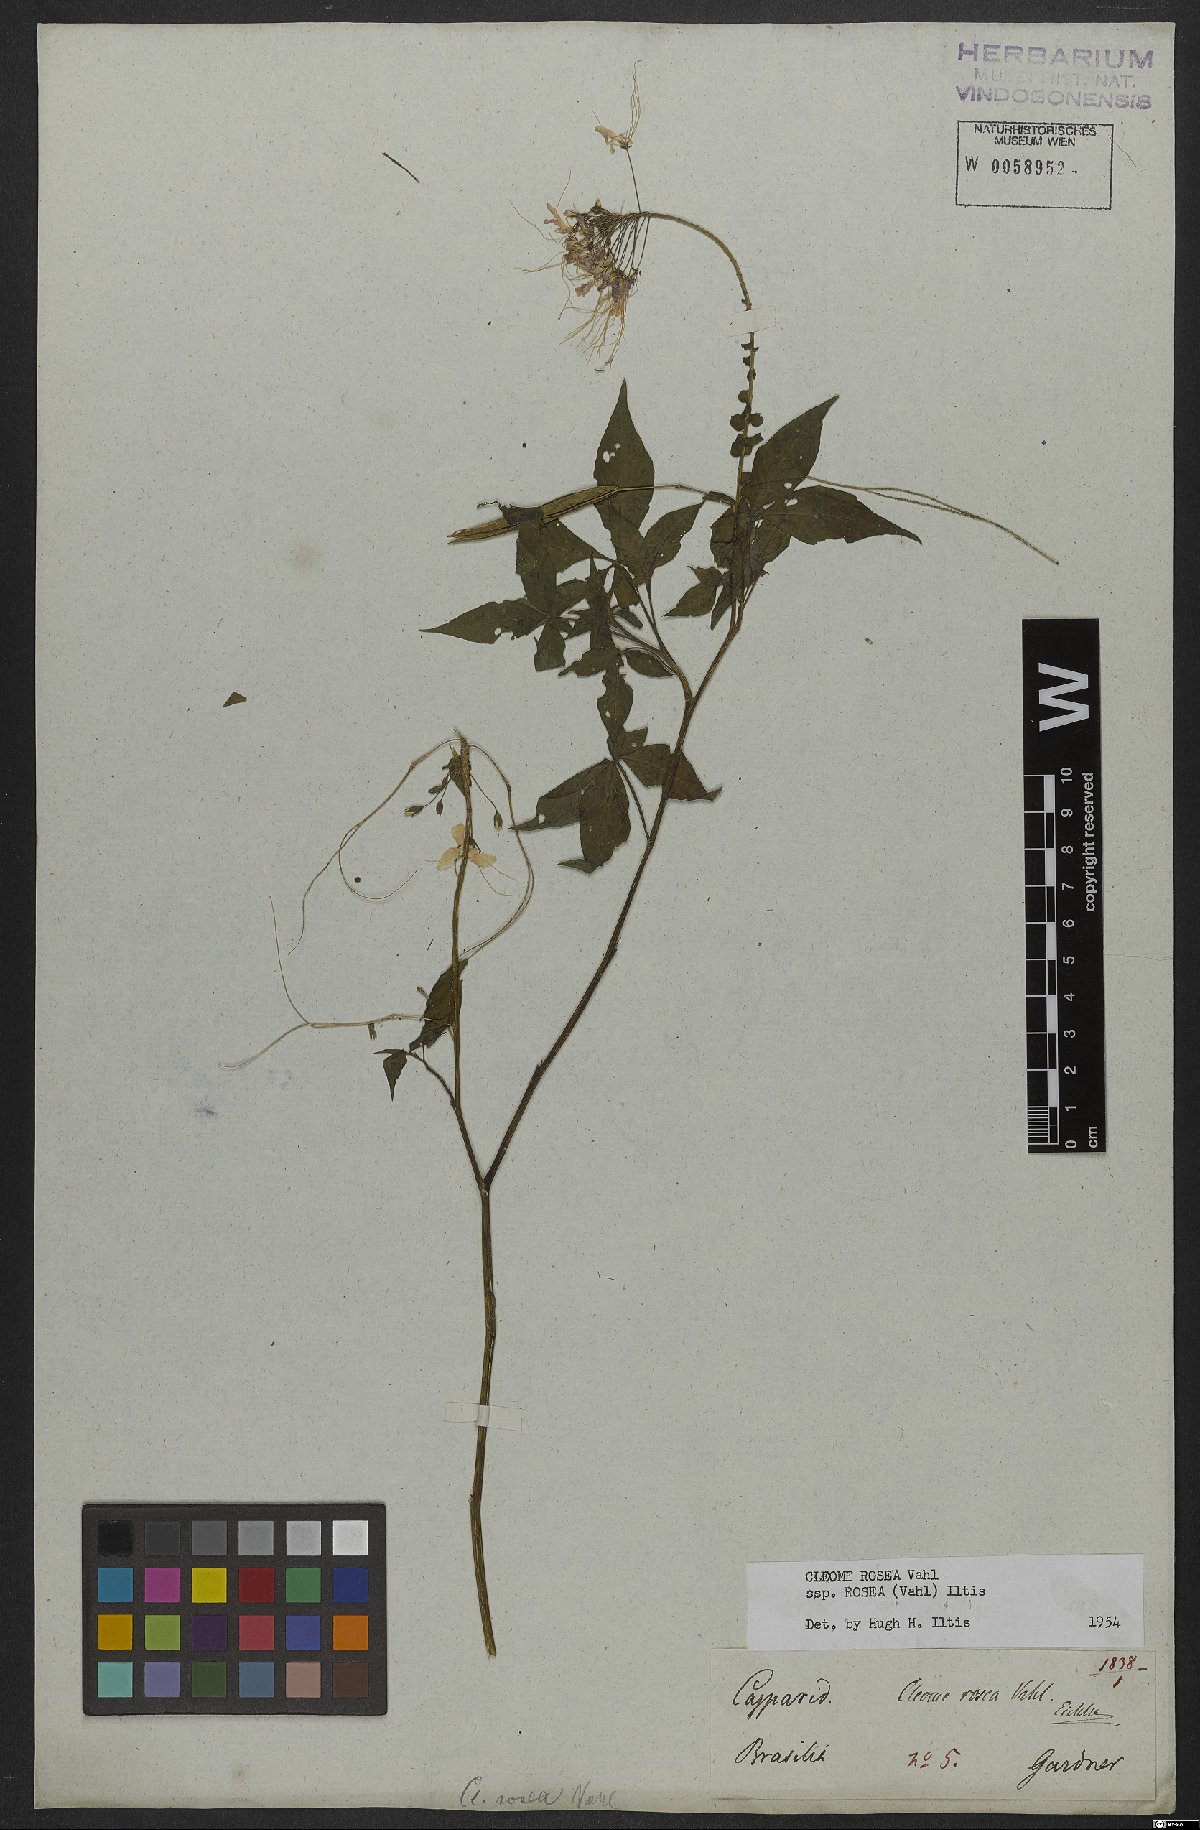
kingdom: Plantae
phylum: Tracheophyta
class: Magnoliopsida
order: Brassicales
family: Cleomaceae
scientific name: Cleomaceae
